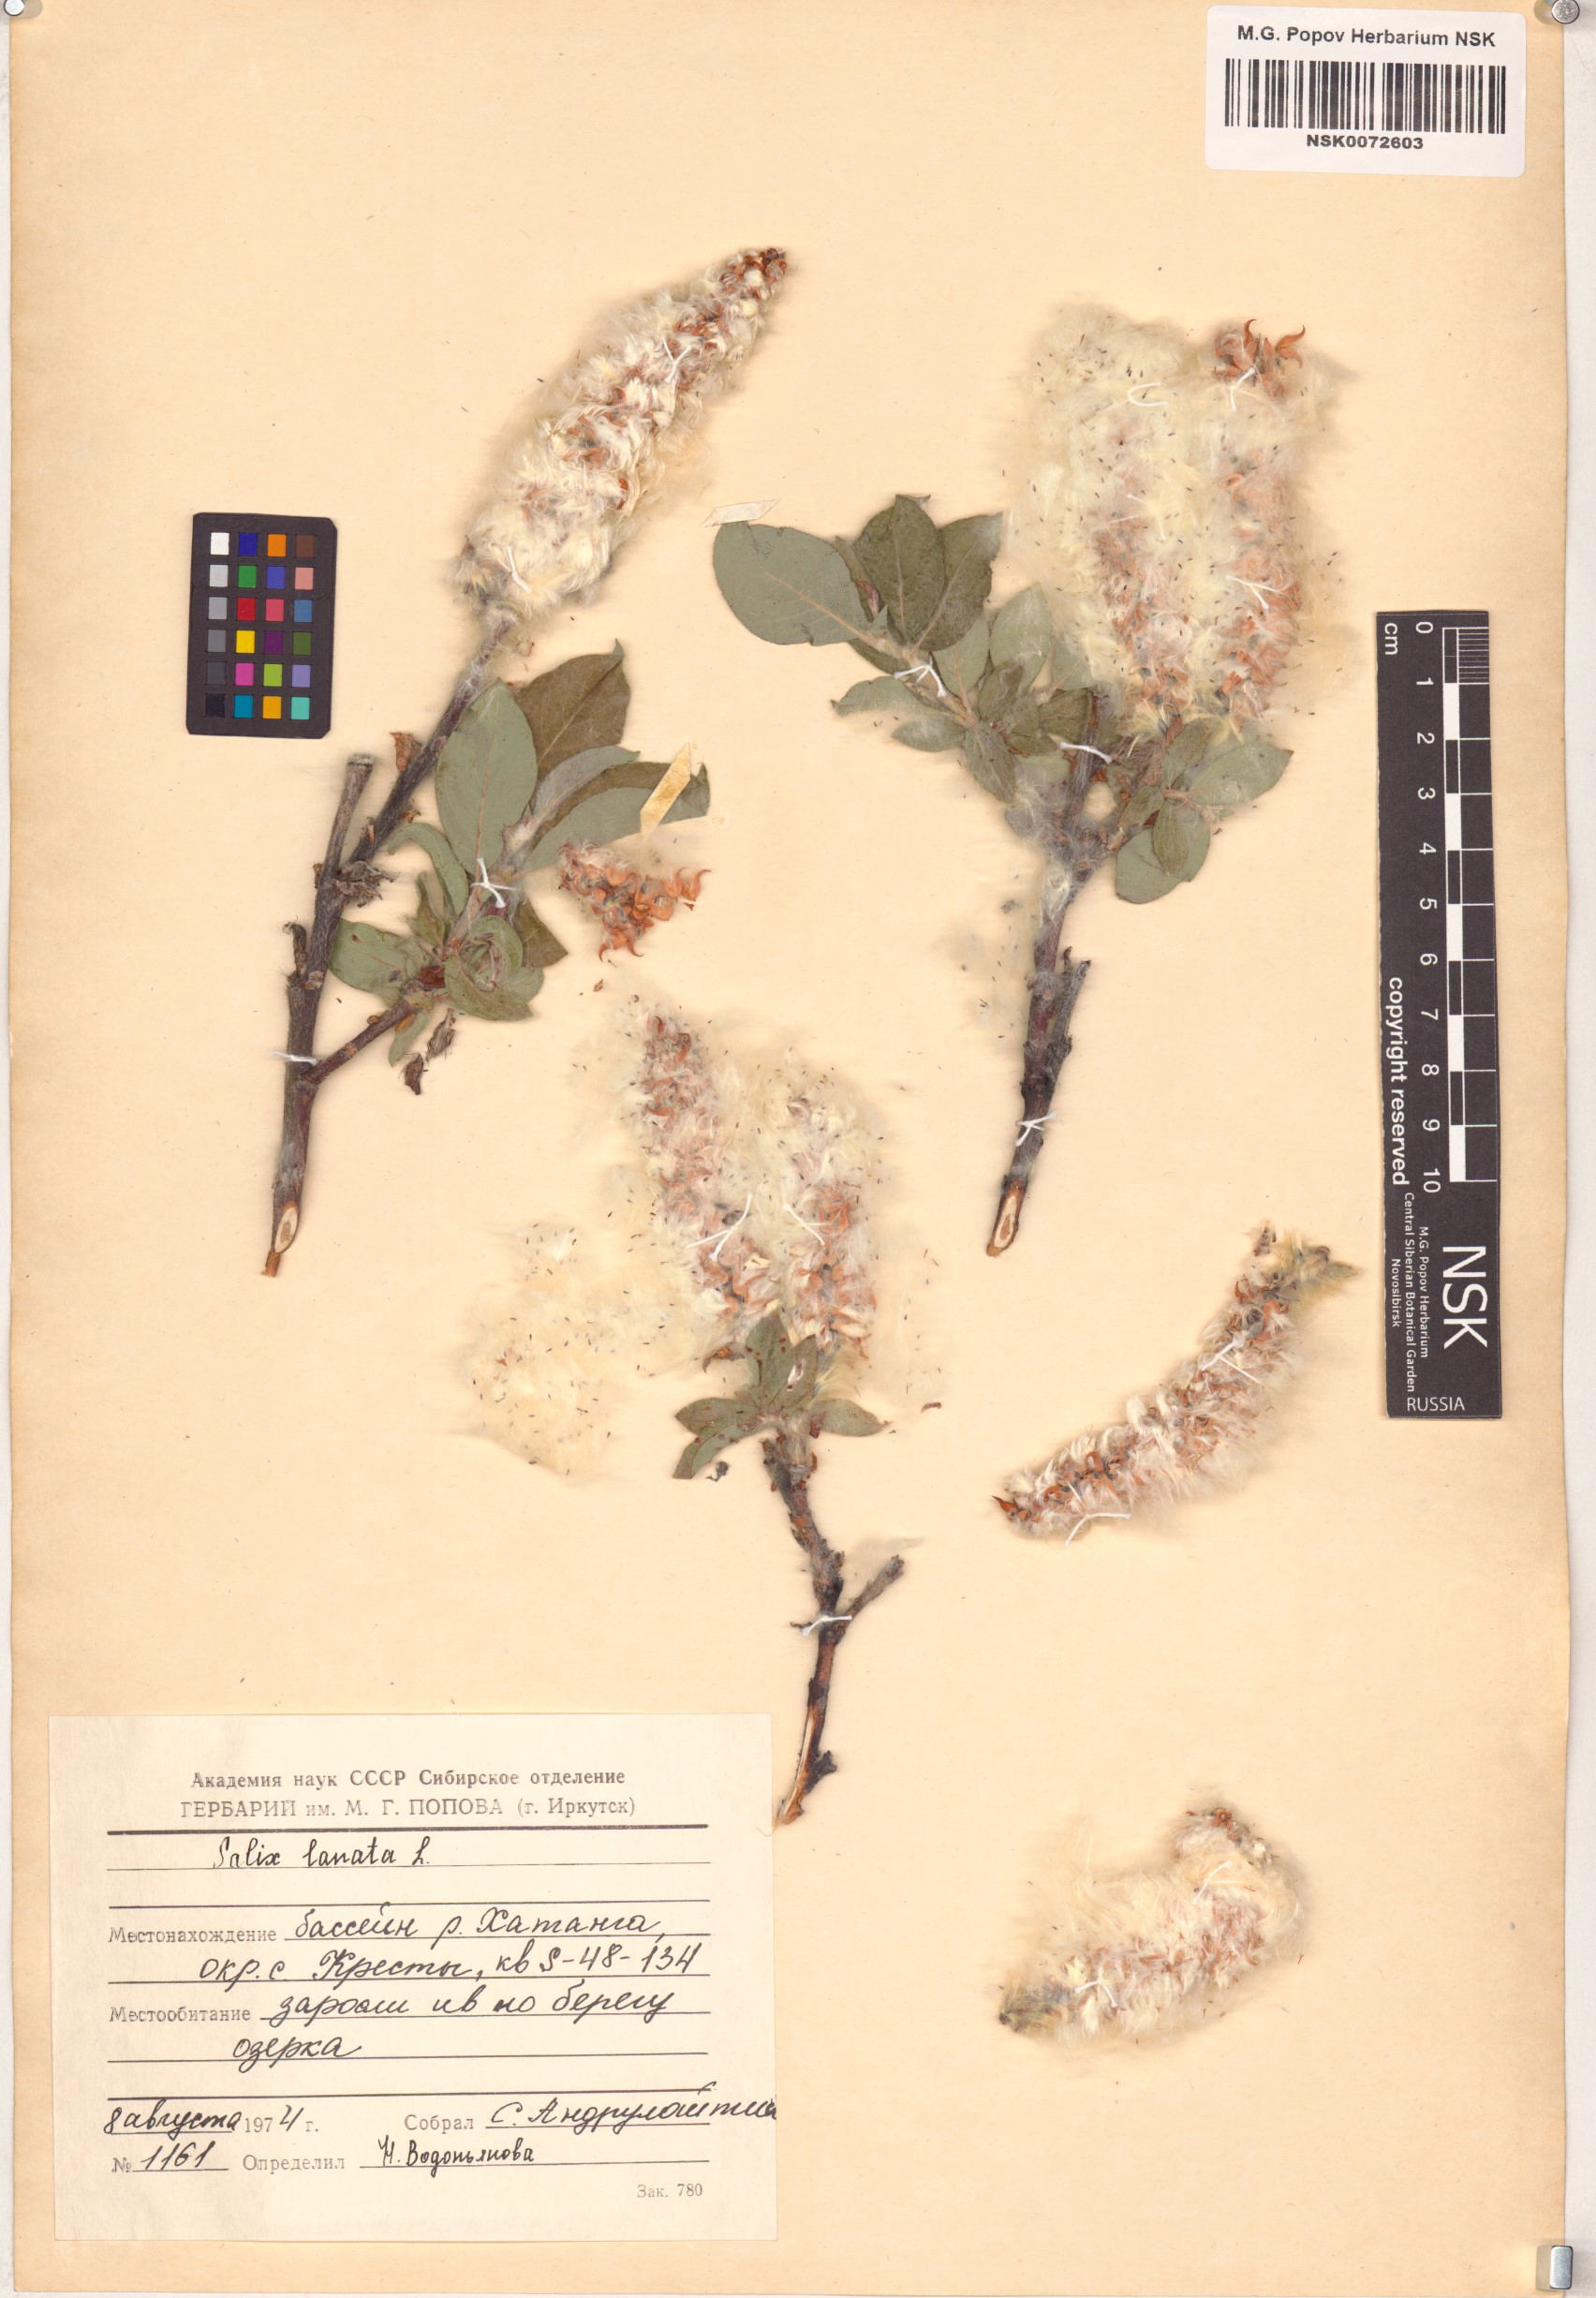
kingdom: Plantae
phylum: Tracheophyta
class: Magnoliopsida
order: Malpighiales
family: Salicaceae
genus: Salix
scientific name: Salix lanata
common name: Woolly willow
